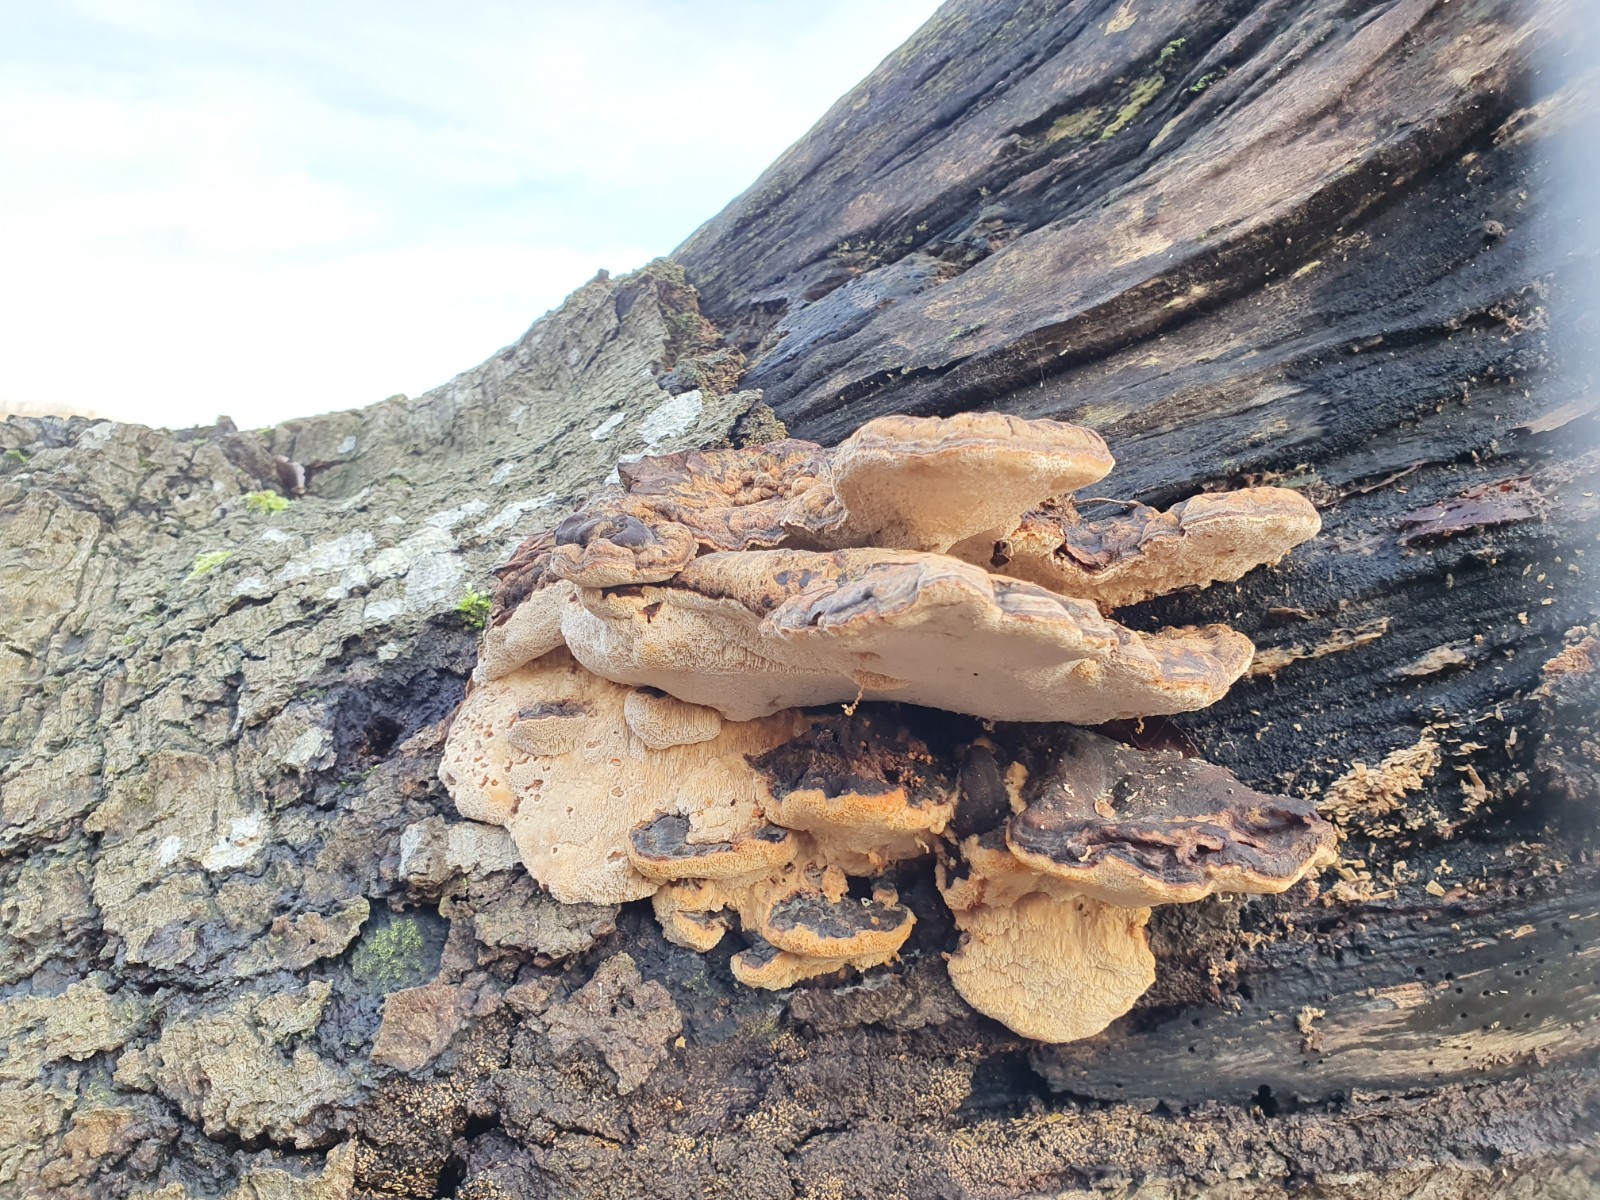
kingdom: Fungi
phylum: Basidiomycota
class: Agaricomycetes
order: Polyporales
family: Ischnodermataceae
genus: Ischnoderma
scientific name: Ischnoderma resinosum
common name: løv-tjæreporesvamp
